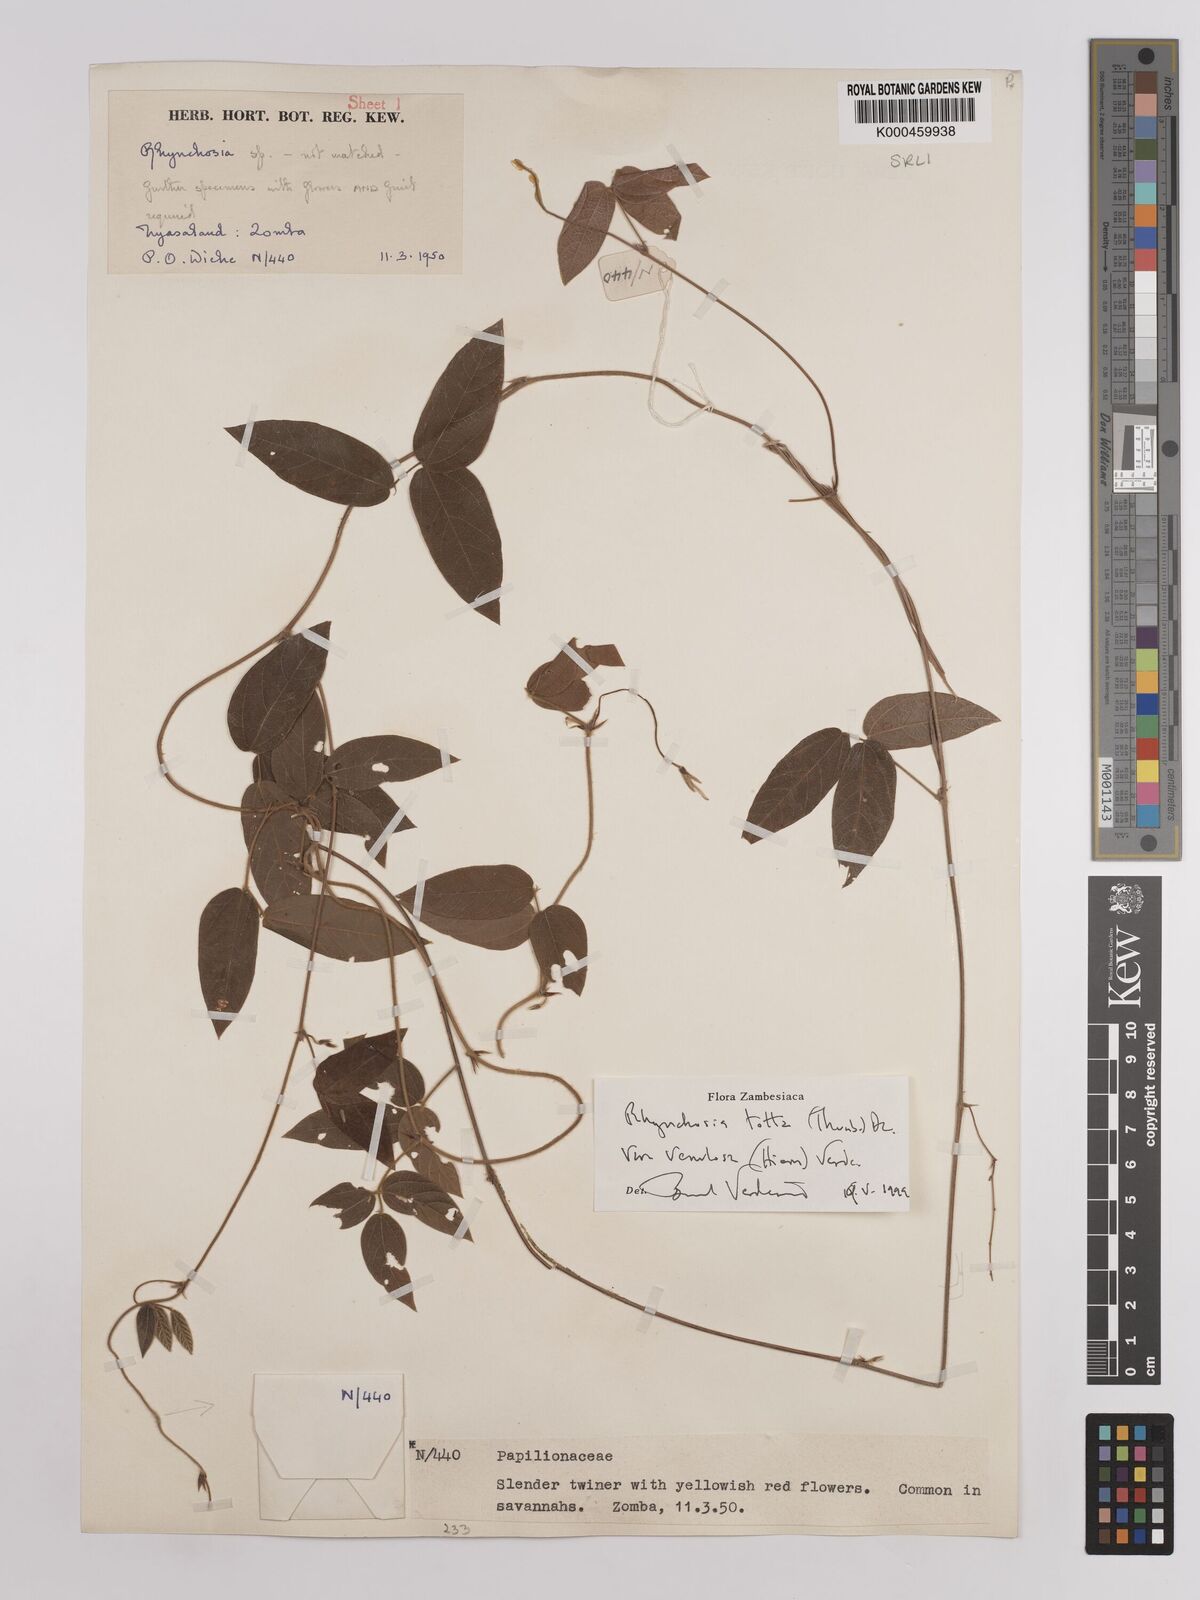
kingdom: Plantae
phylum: Tracheophyta
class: Magnoliopsida
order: Fabales
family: Fabaceae
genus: Rhynchosia
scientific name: Rhynchosia totta
